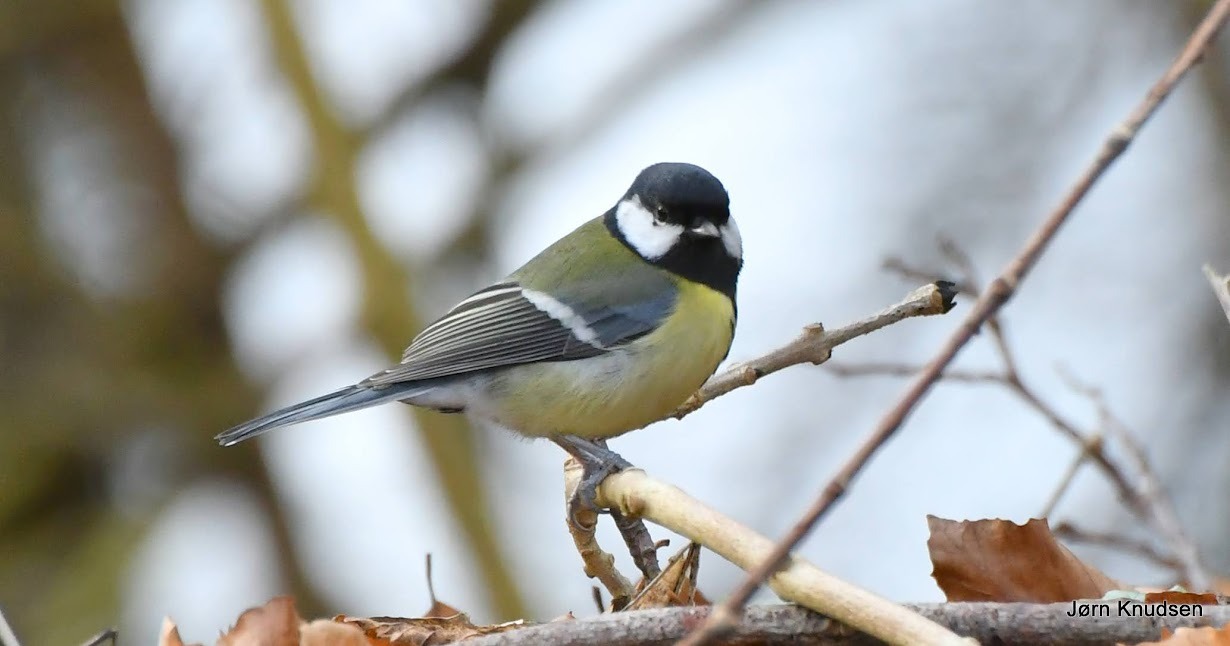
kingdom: Animalia
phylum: Chordata
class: Aves
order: Passeriformes
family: Paridae
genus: Parus
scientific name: Parus major
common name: Musvit
